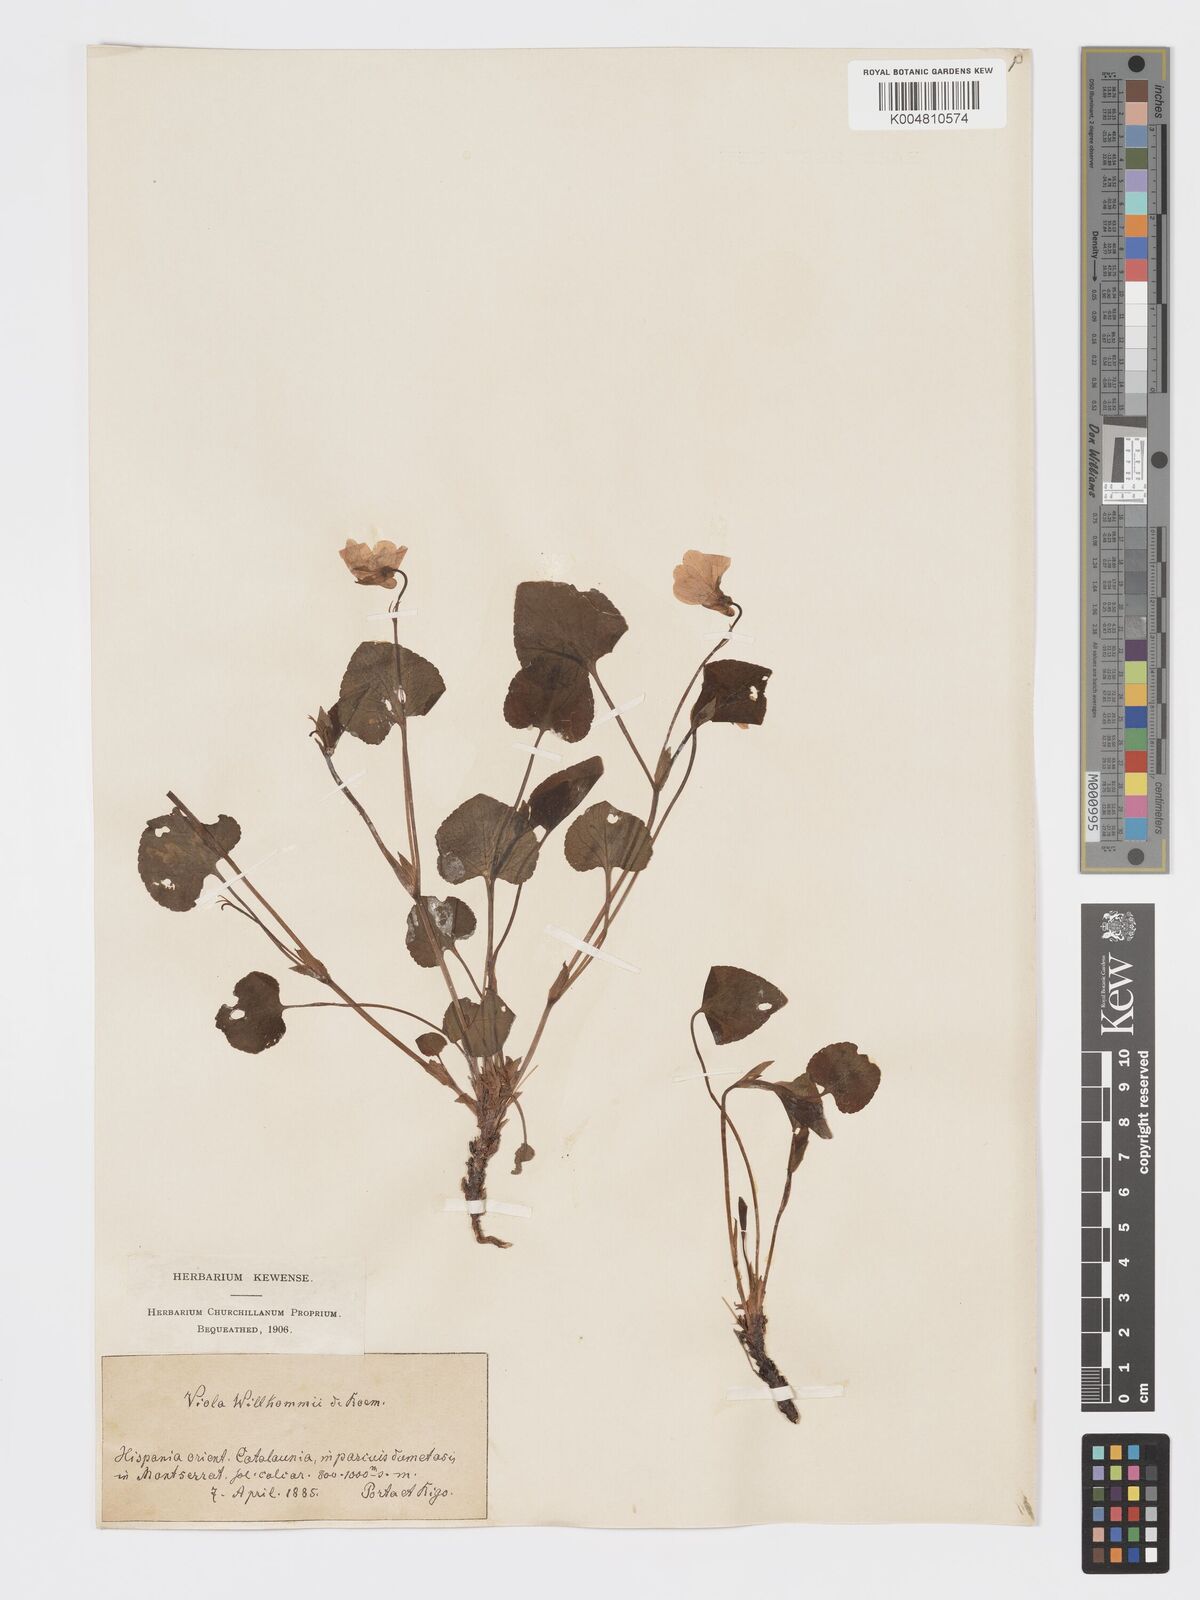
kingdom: Plantae
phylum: Tracheophyta
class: Magnoliopsida
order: Malpighiales
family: Violaceae
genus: Viola
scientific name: Viola mirabilis
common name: Wonder violet
